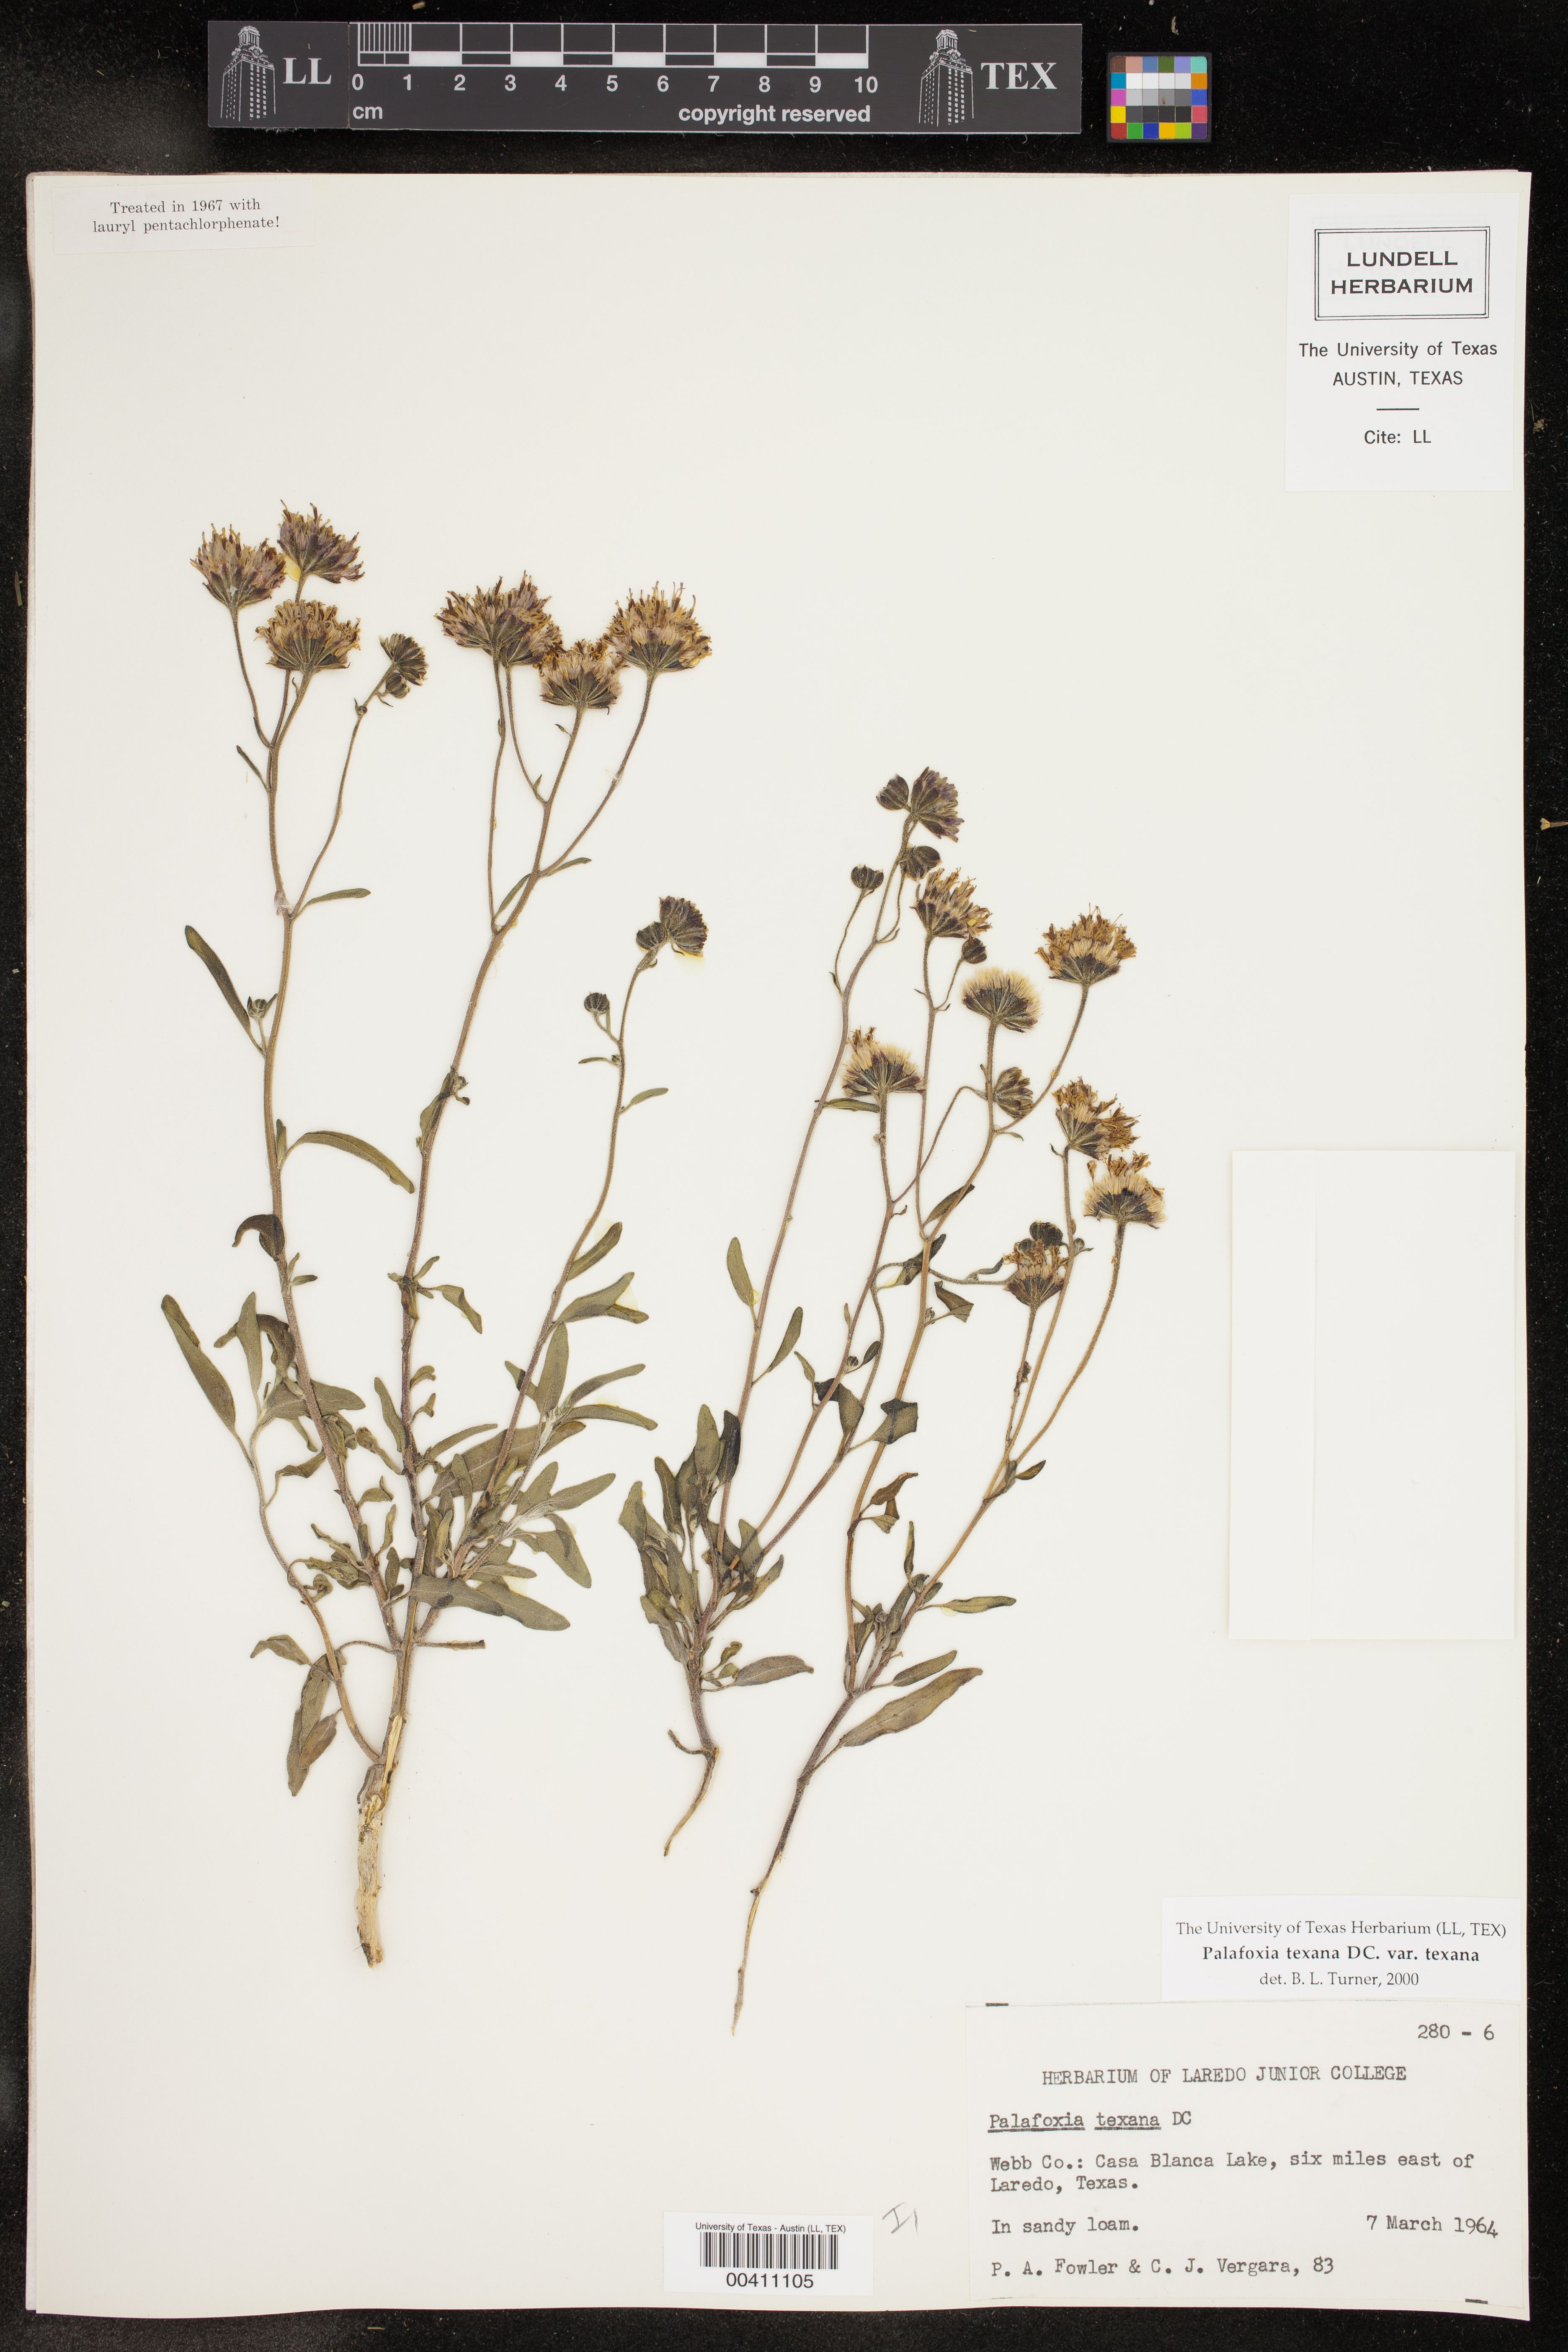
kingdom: Plantae
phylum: Tracheophyta
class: Magnoliopsida
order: Asterales
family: Asteraceae
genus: Palafoxia
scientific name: Palafoxia texana
